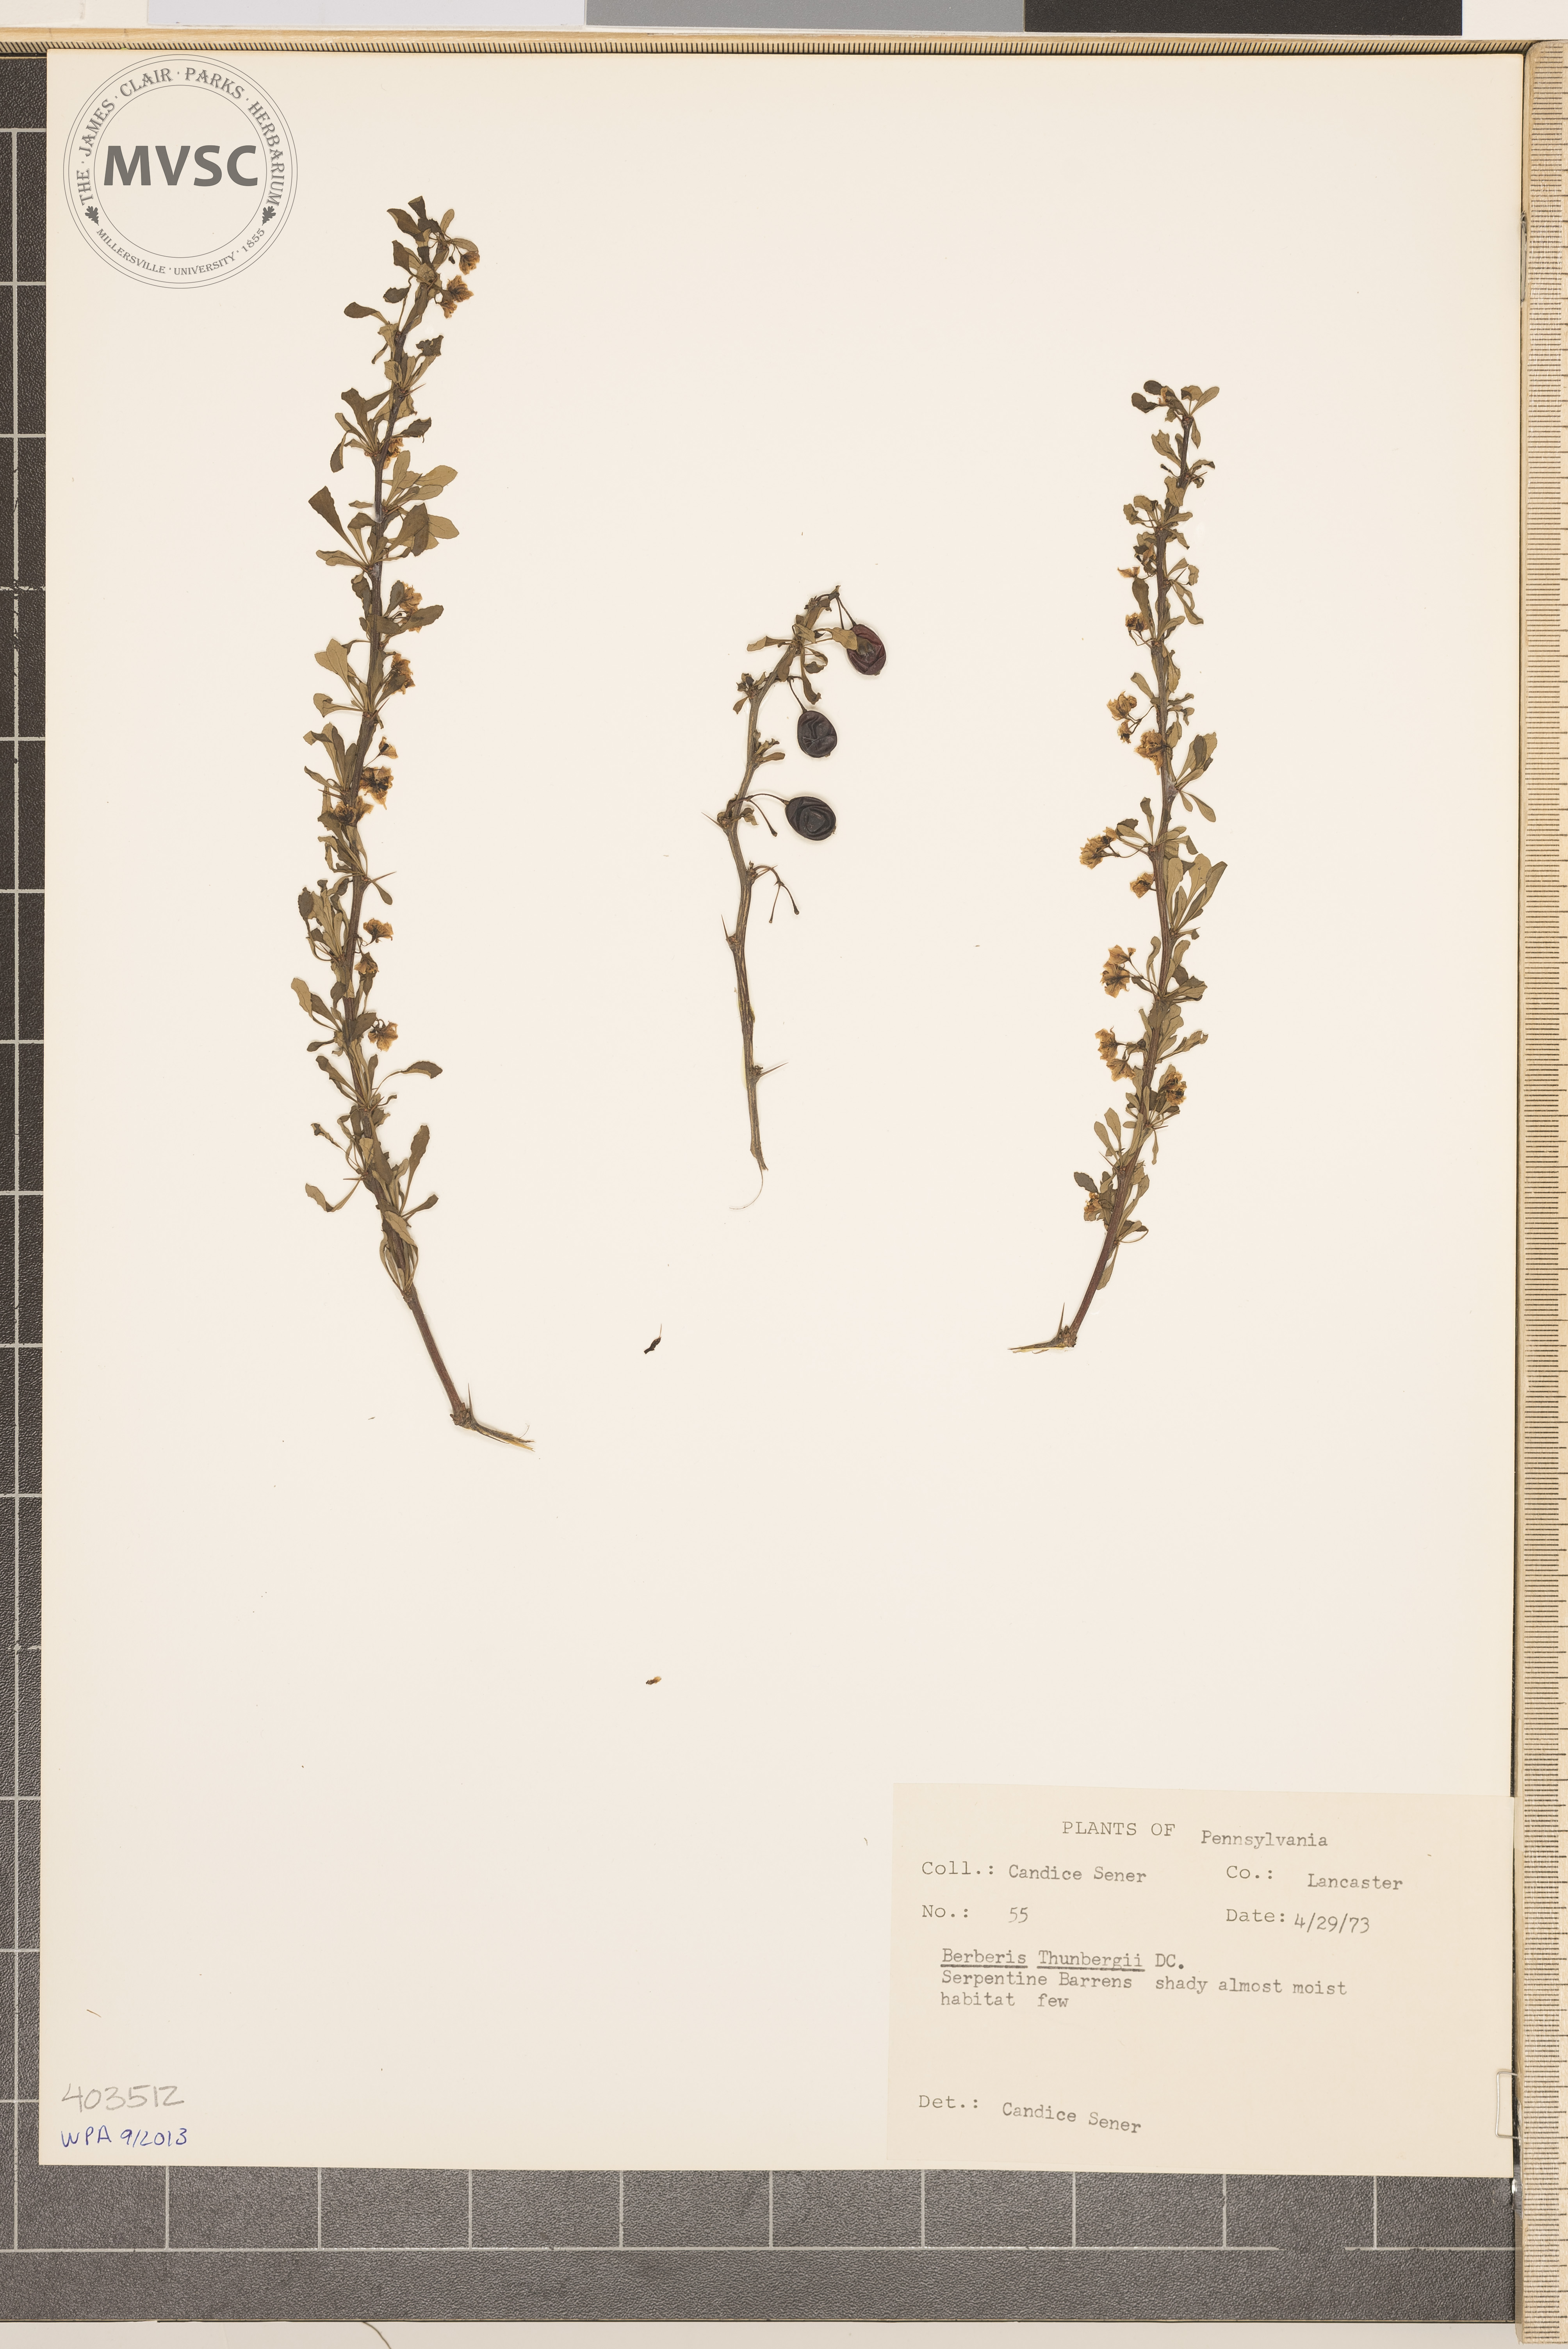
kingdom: Plantae
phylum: Tracheophyta
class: Magnoliopsida
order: Ranunculales
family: Berberidaceae
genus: Berberis
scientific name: Berberis thunbergii
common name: Japanese barberry
